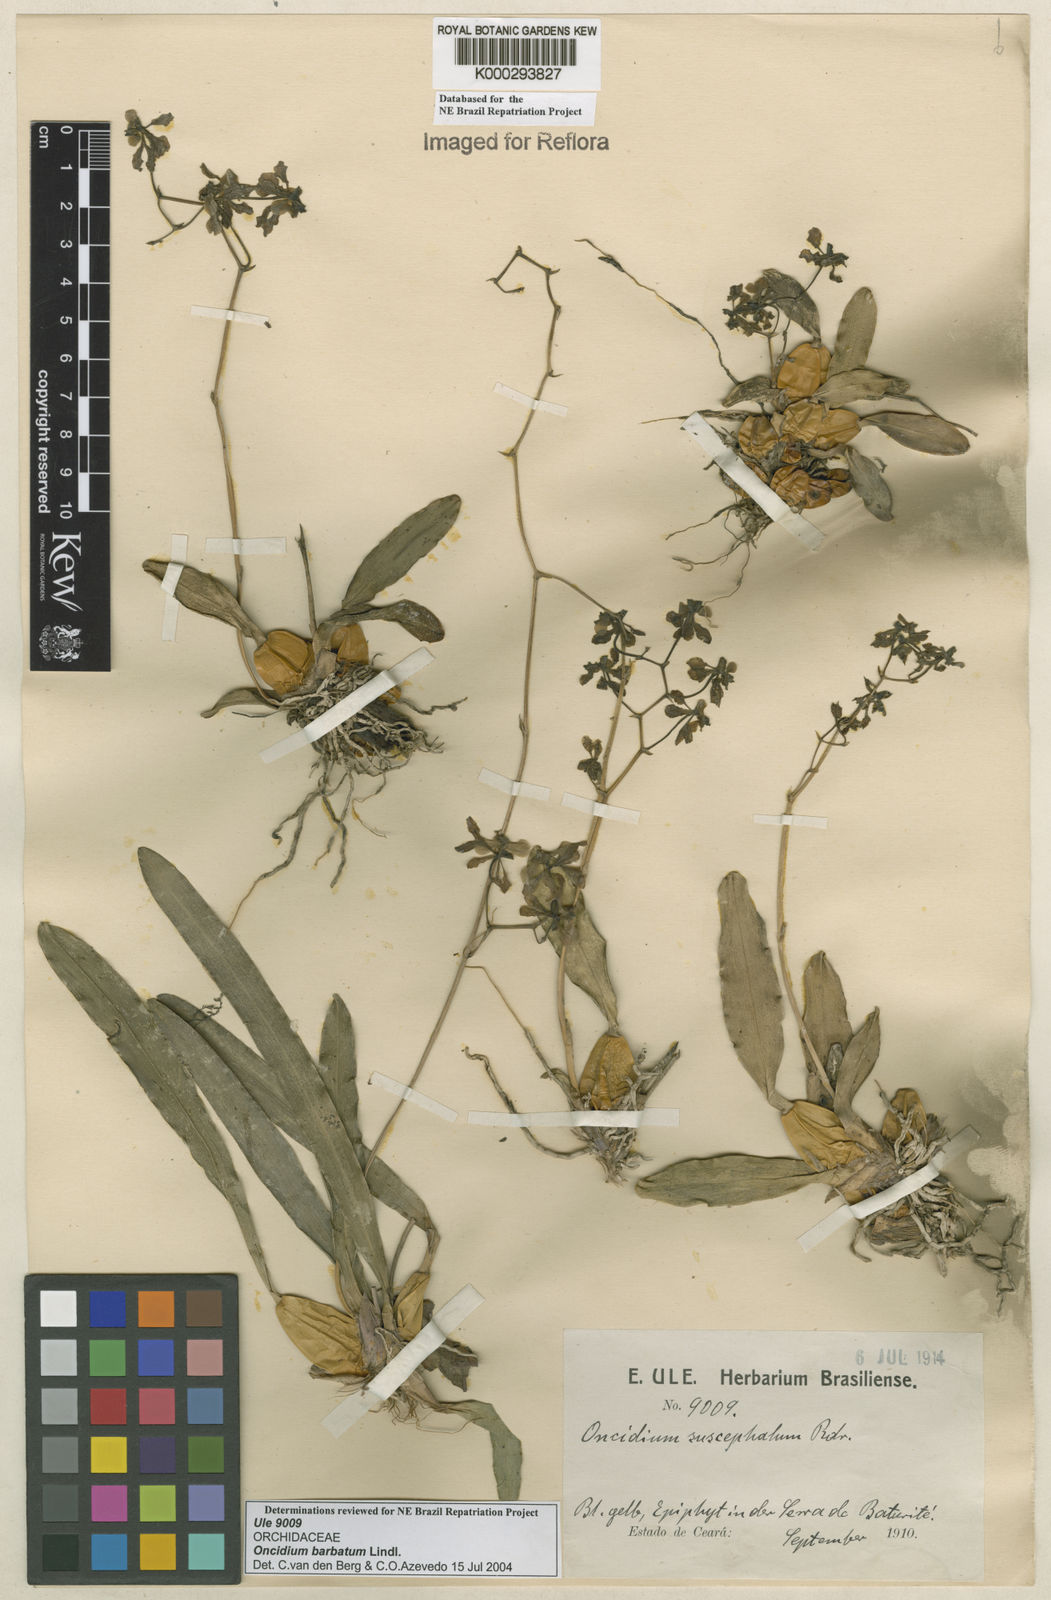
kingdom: Plantae
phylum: Tracheophyta
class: Liliopsida
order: Asparagales
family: Orchidaceae
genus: Gomesa
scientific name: Gomesa barbata
